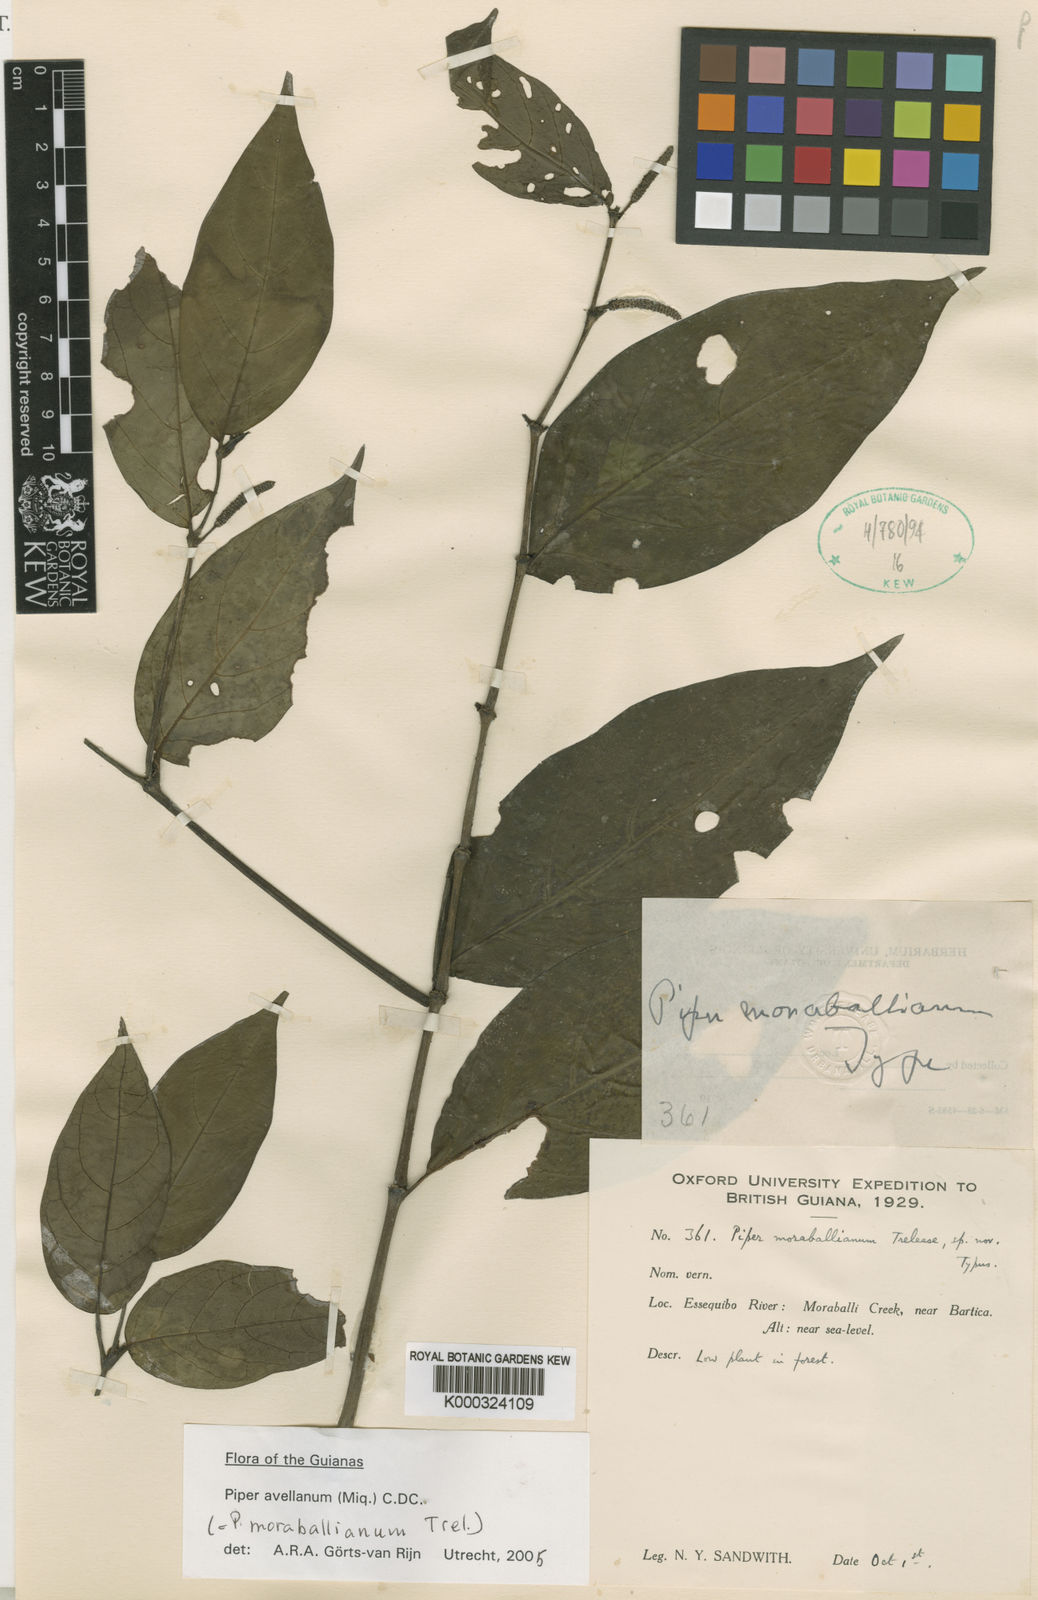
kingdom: Plantae
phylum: Tracheophyta
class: Magnoliopsida
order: Piperales
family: Piperaceae
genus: Piper
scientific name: Piper avellanum
